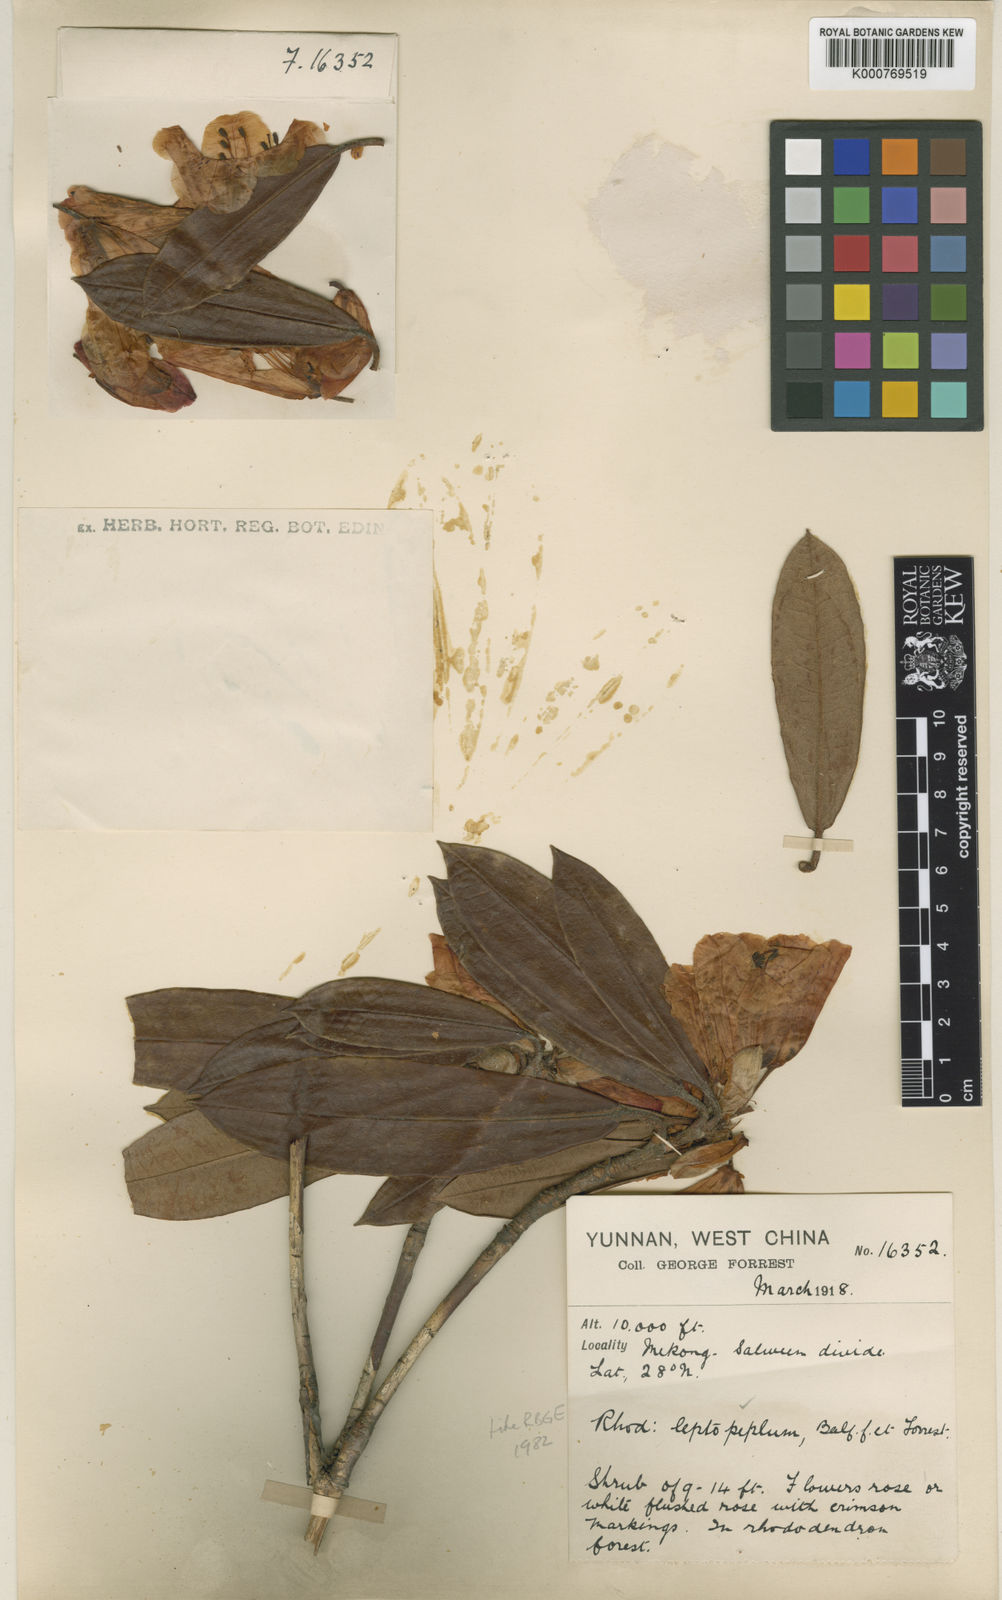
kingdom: Plantae
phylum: Tracheophyta
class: Magnoliopsida
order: Ericales
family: Ericaceae
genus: Rhododendron
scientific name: Rhododendron leptopeplum
